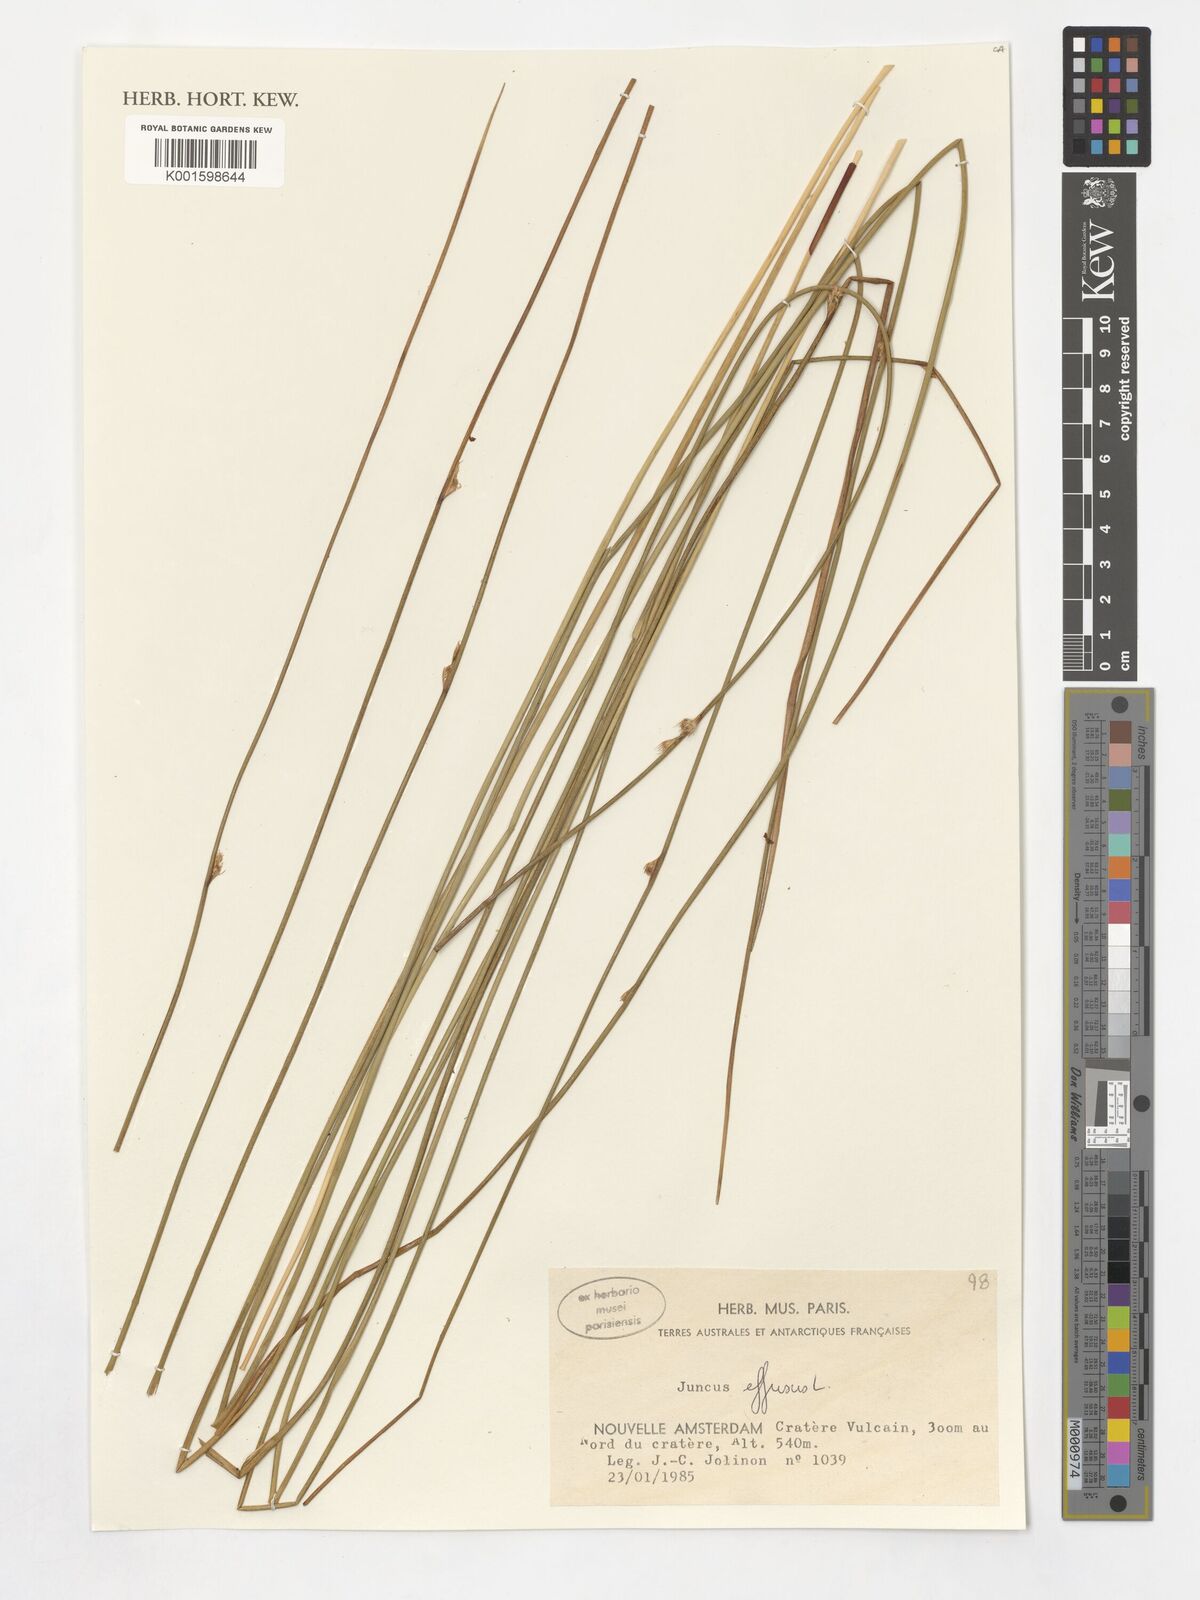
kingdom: Plantae
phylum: Tracheophyta
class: Liliopsida
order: Poales
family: Juncaceae
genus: Juncus
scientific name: Juncus effusus
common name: Soft rush
